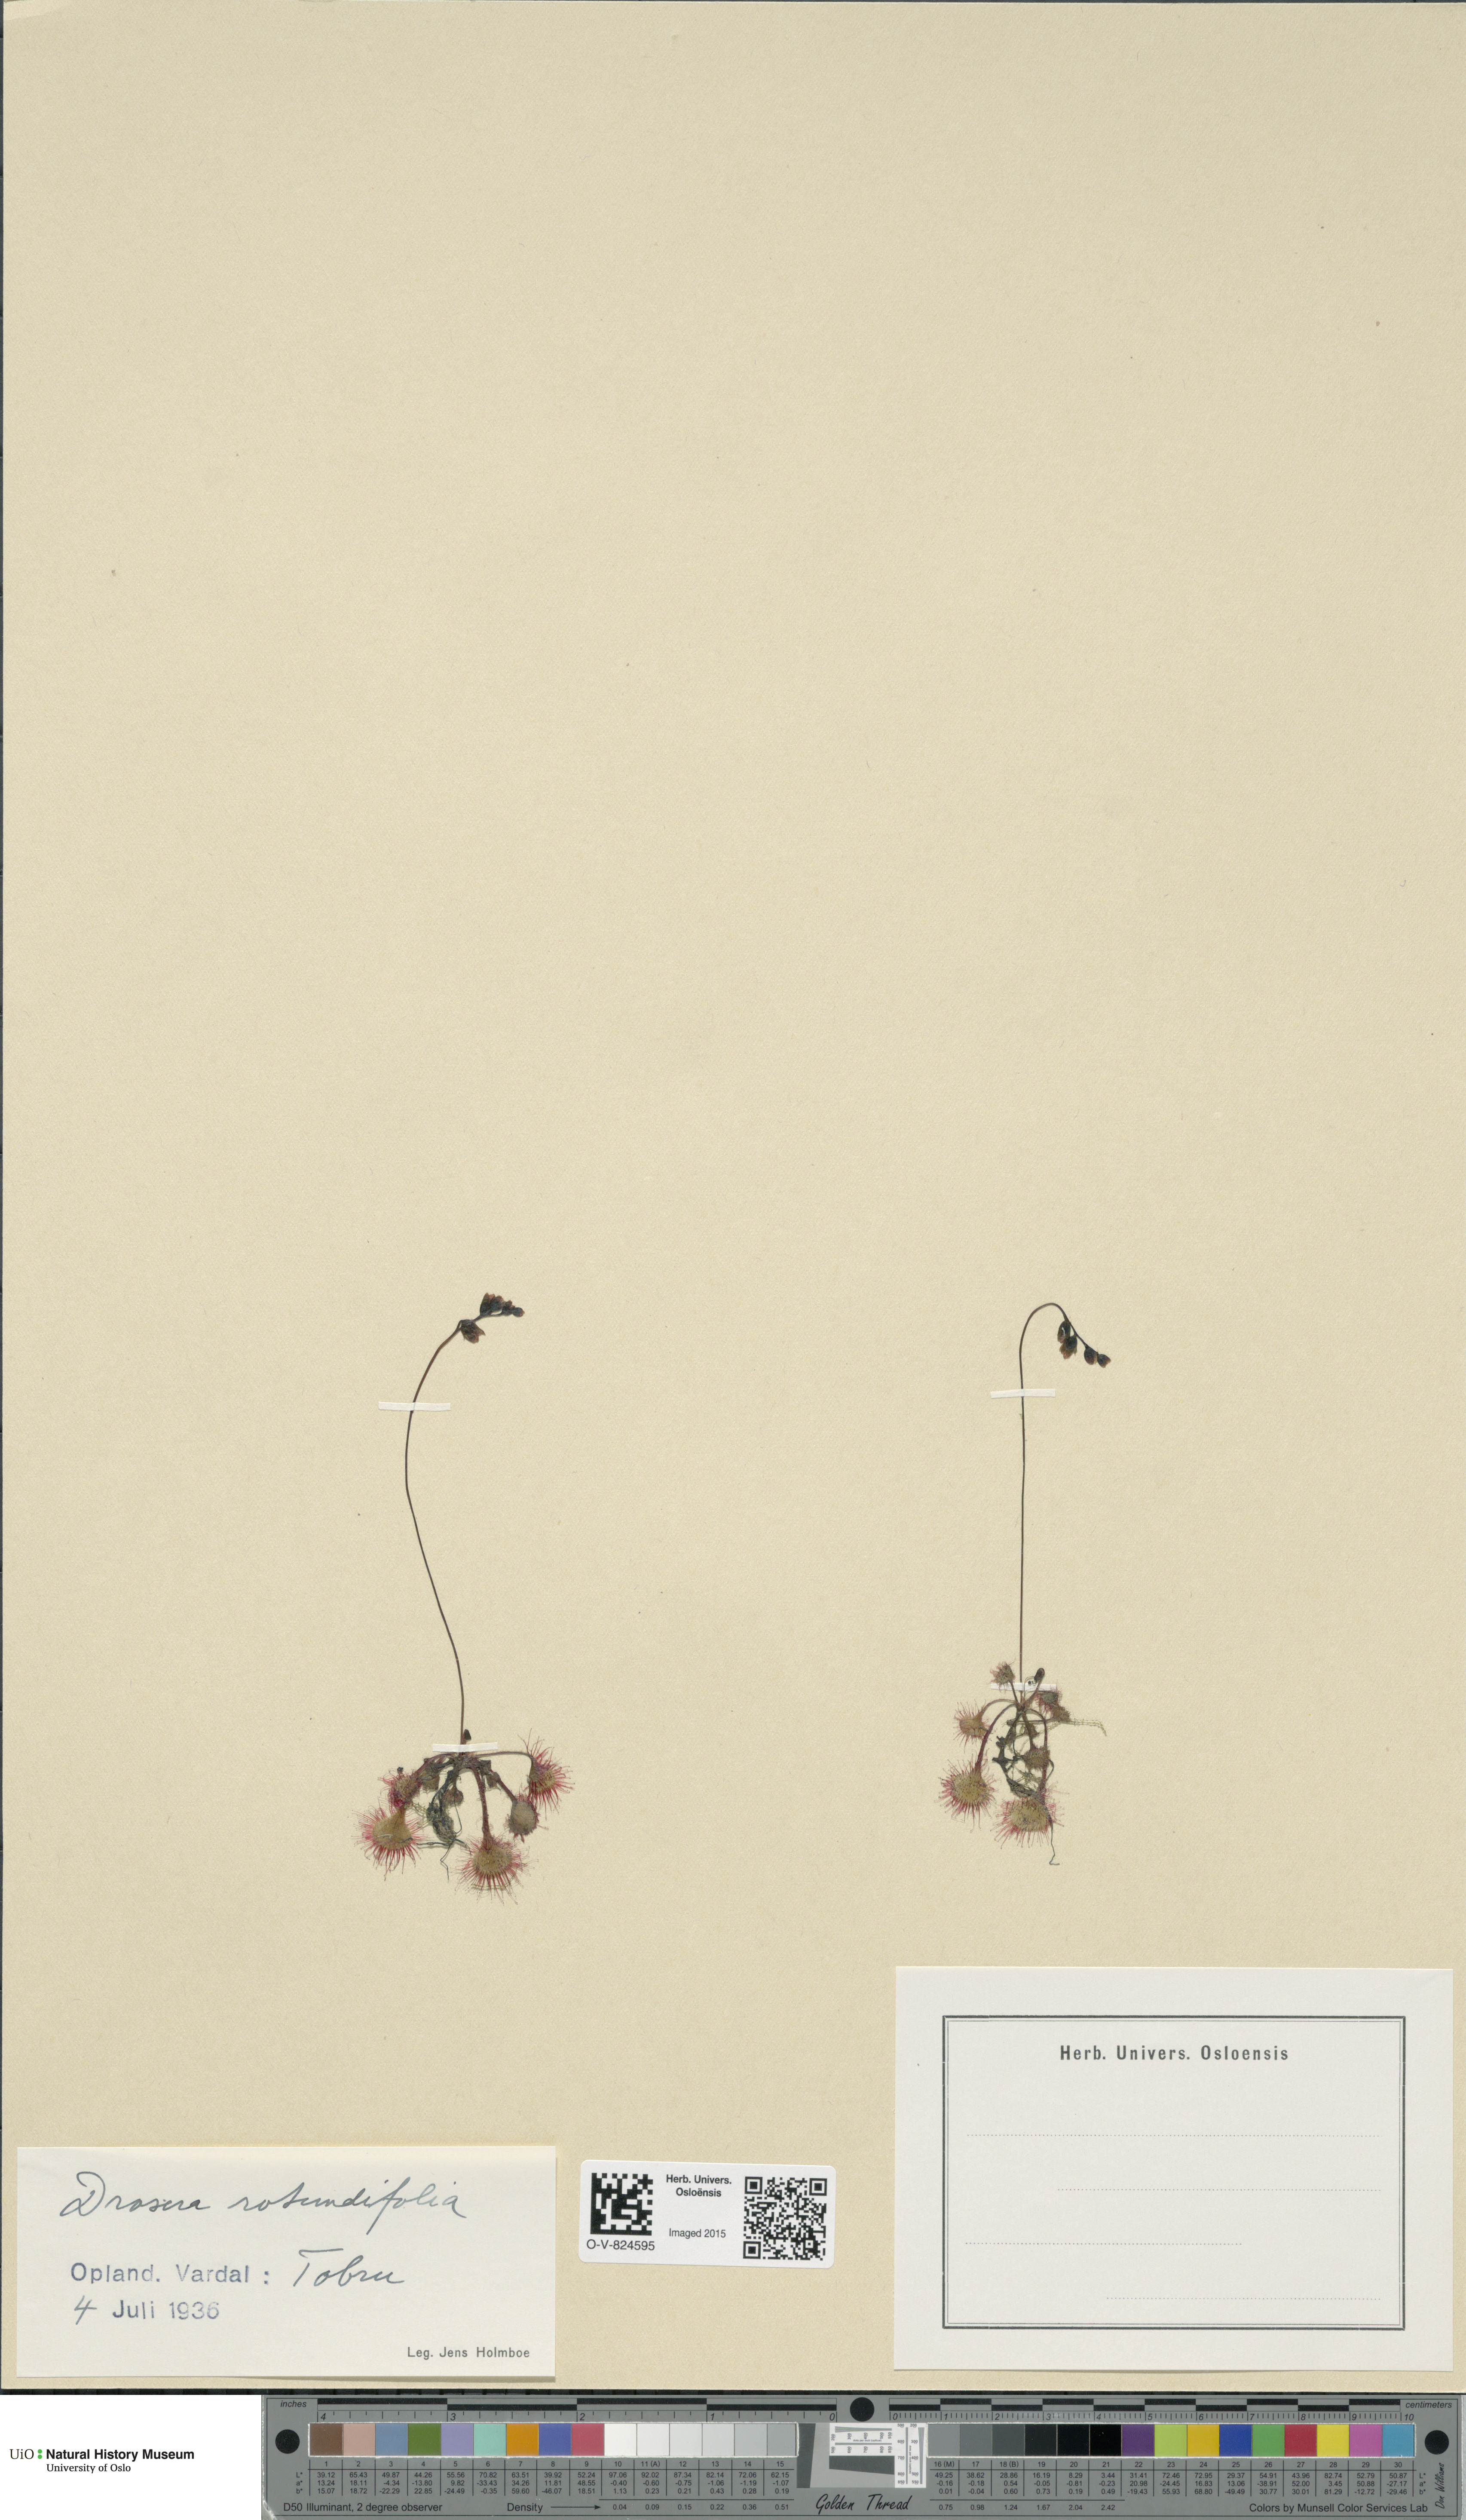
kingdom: Plantae
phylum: Tracheophyta
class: Magnoliopsida
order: Caryophyllales
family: Droseraceae
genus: Drosera
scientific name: Drosera rotundifolia
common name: Round-leaved sundew
